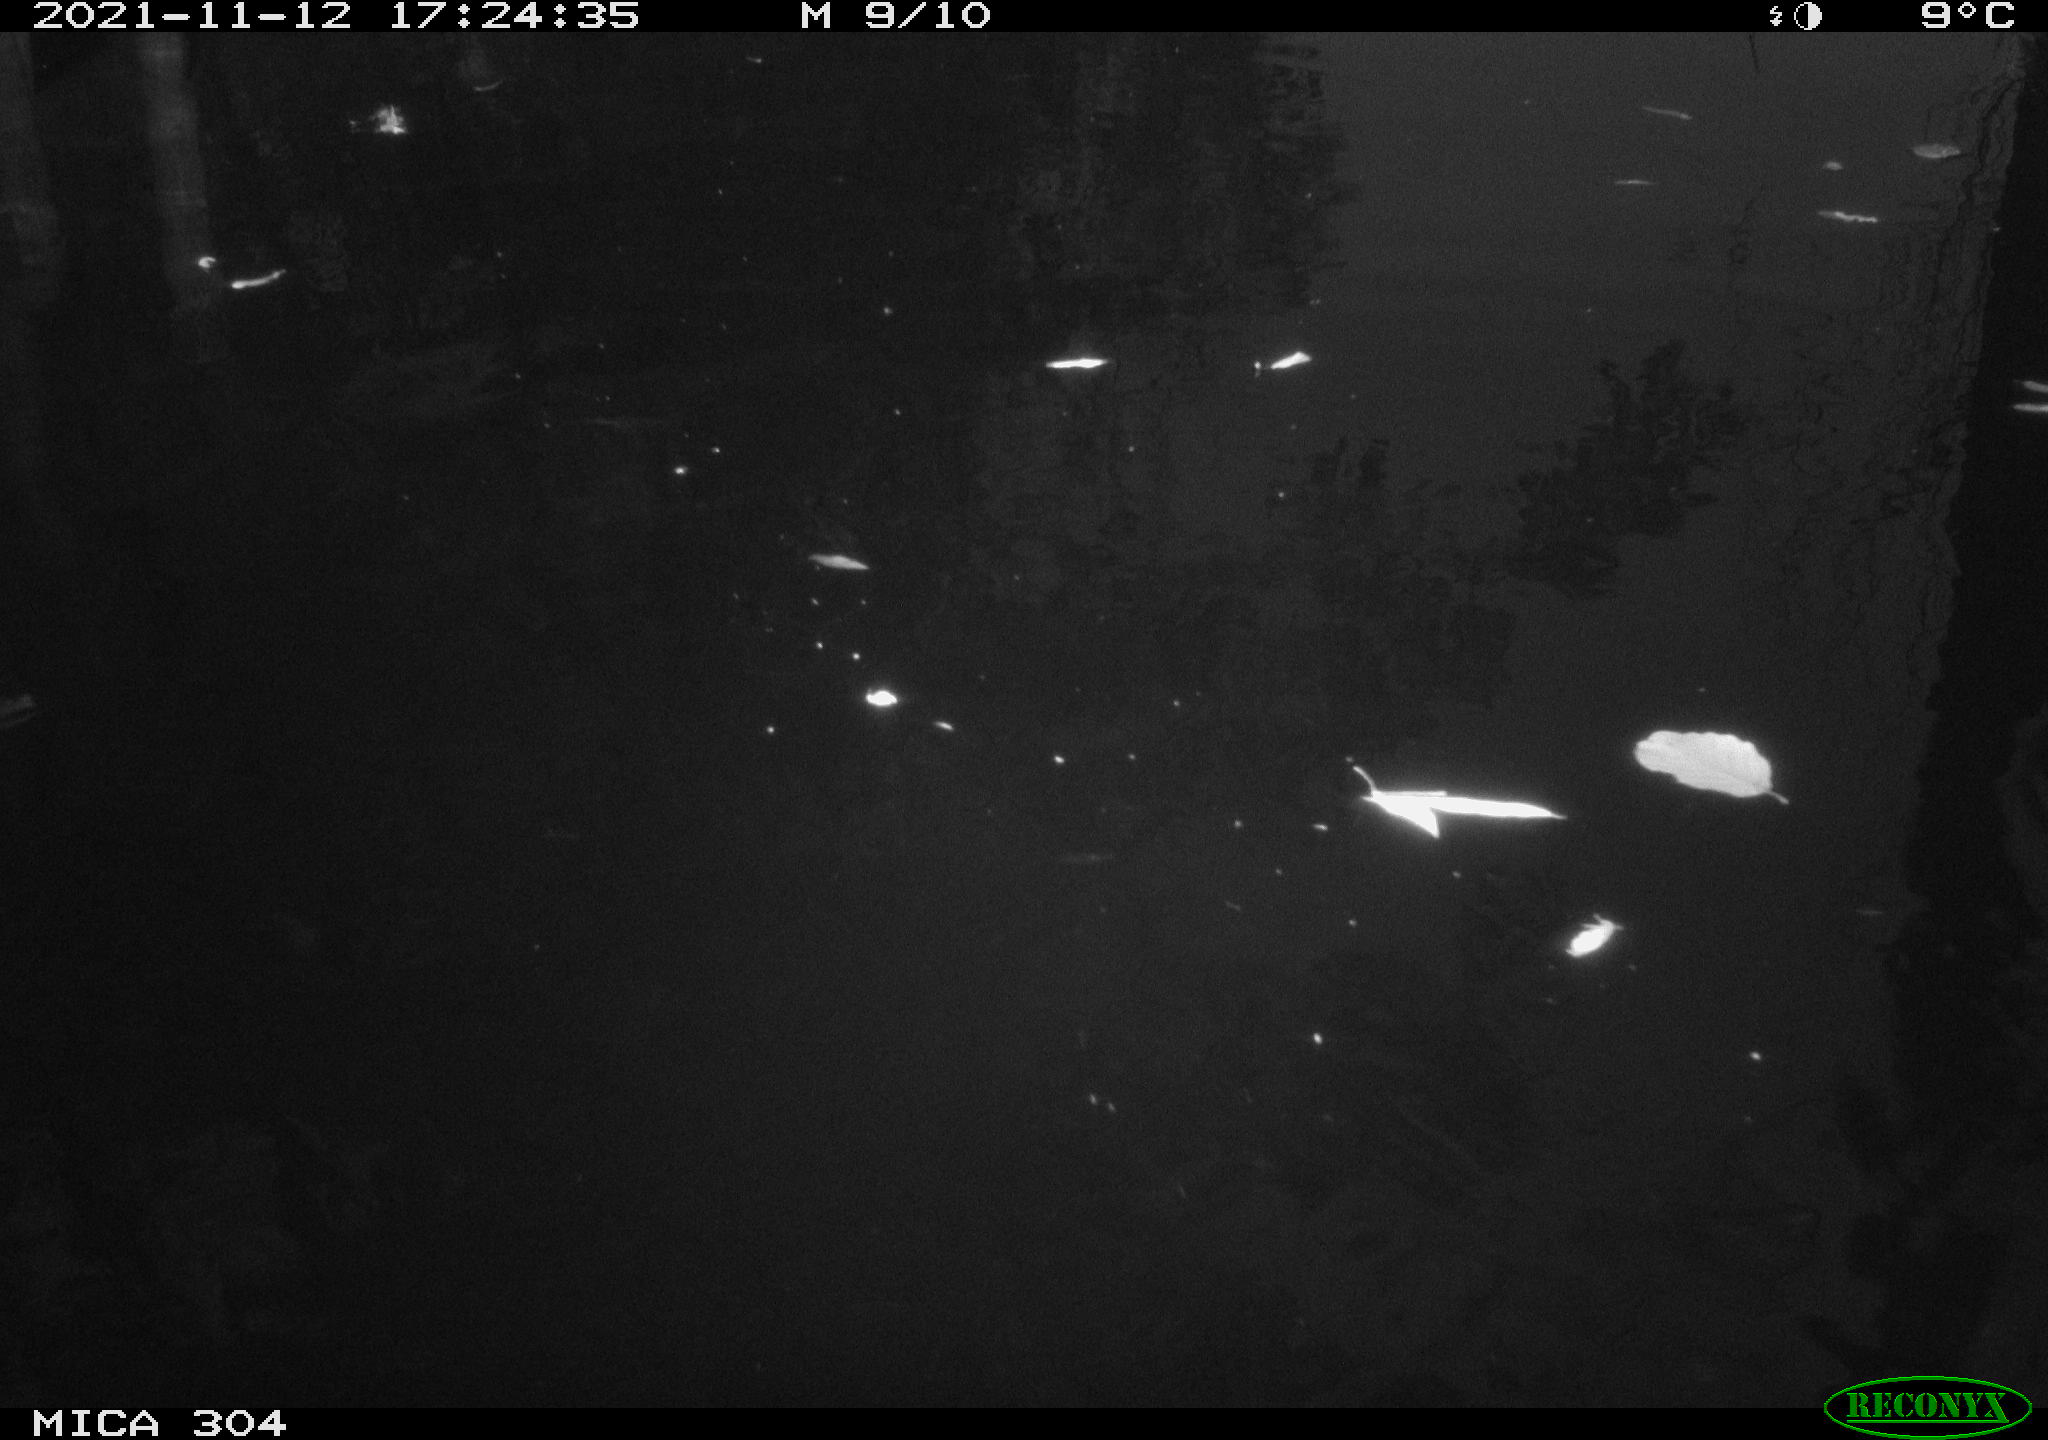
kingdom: Animalia
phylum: Chordata
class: Aves
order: Gruiformes
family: Rallidae
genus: Fulica
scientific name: Fulica atra
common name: Eurasian coot
